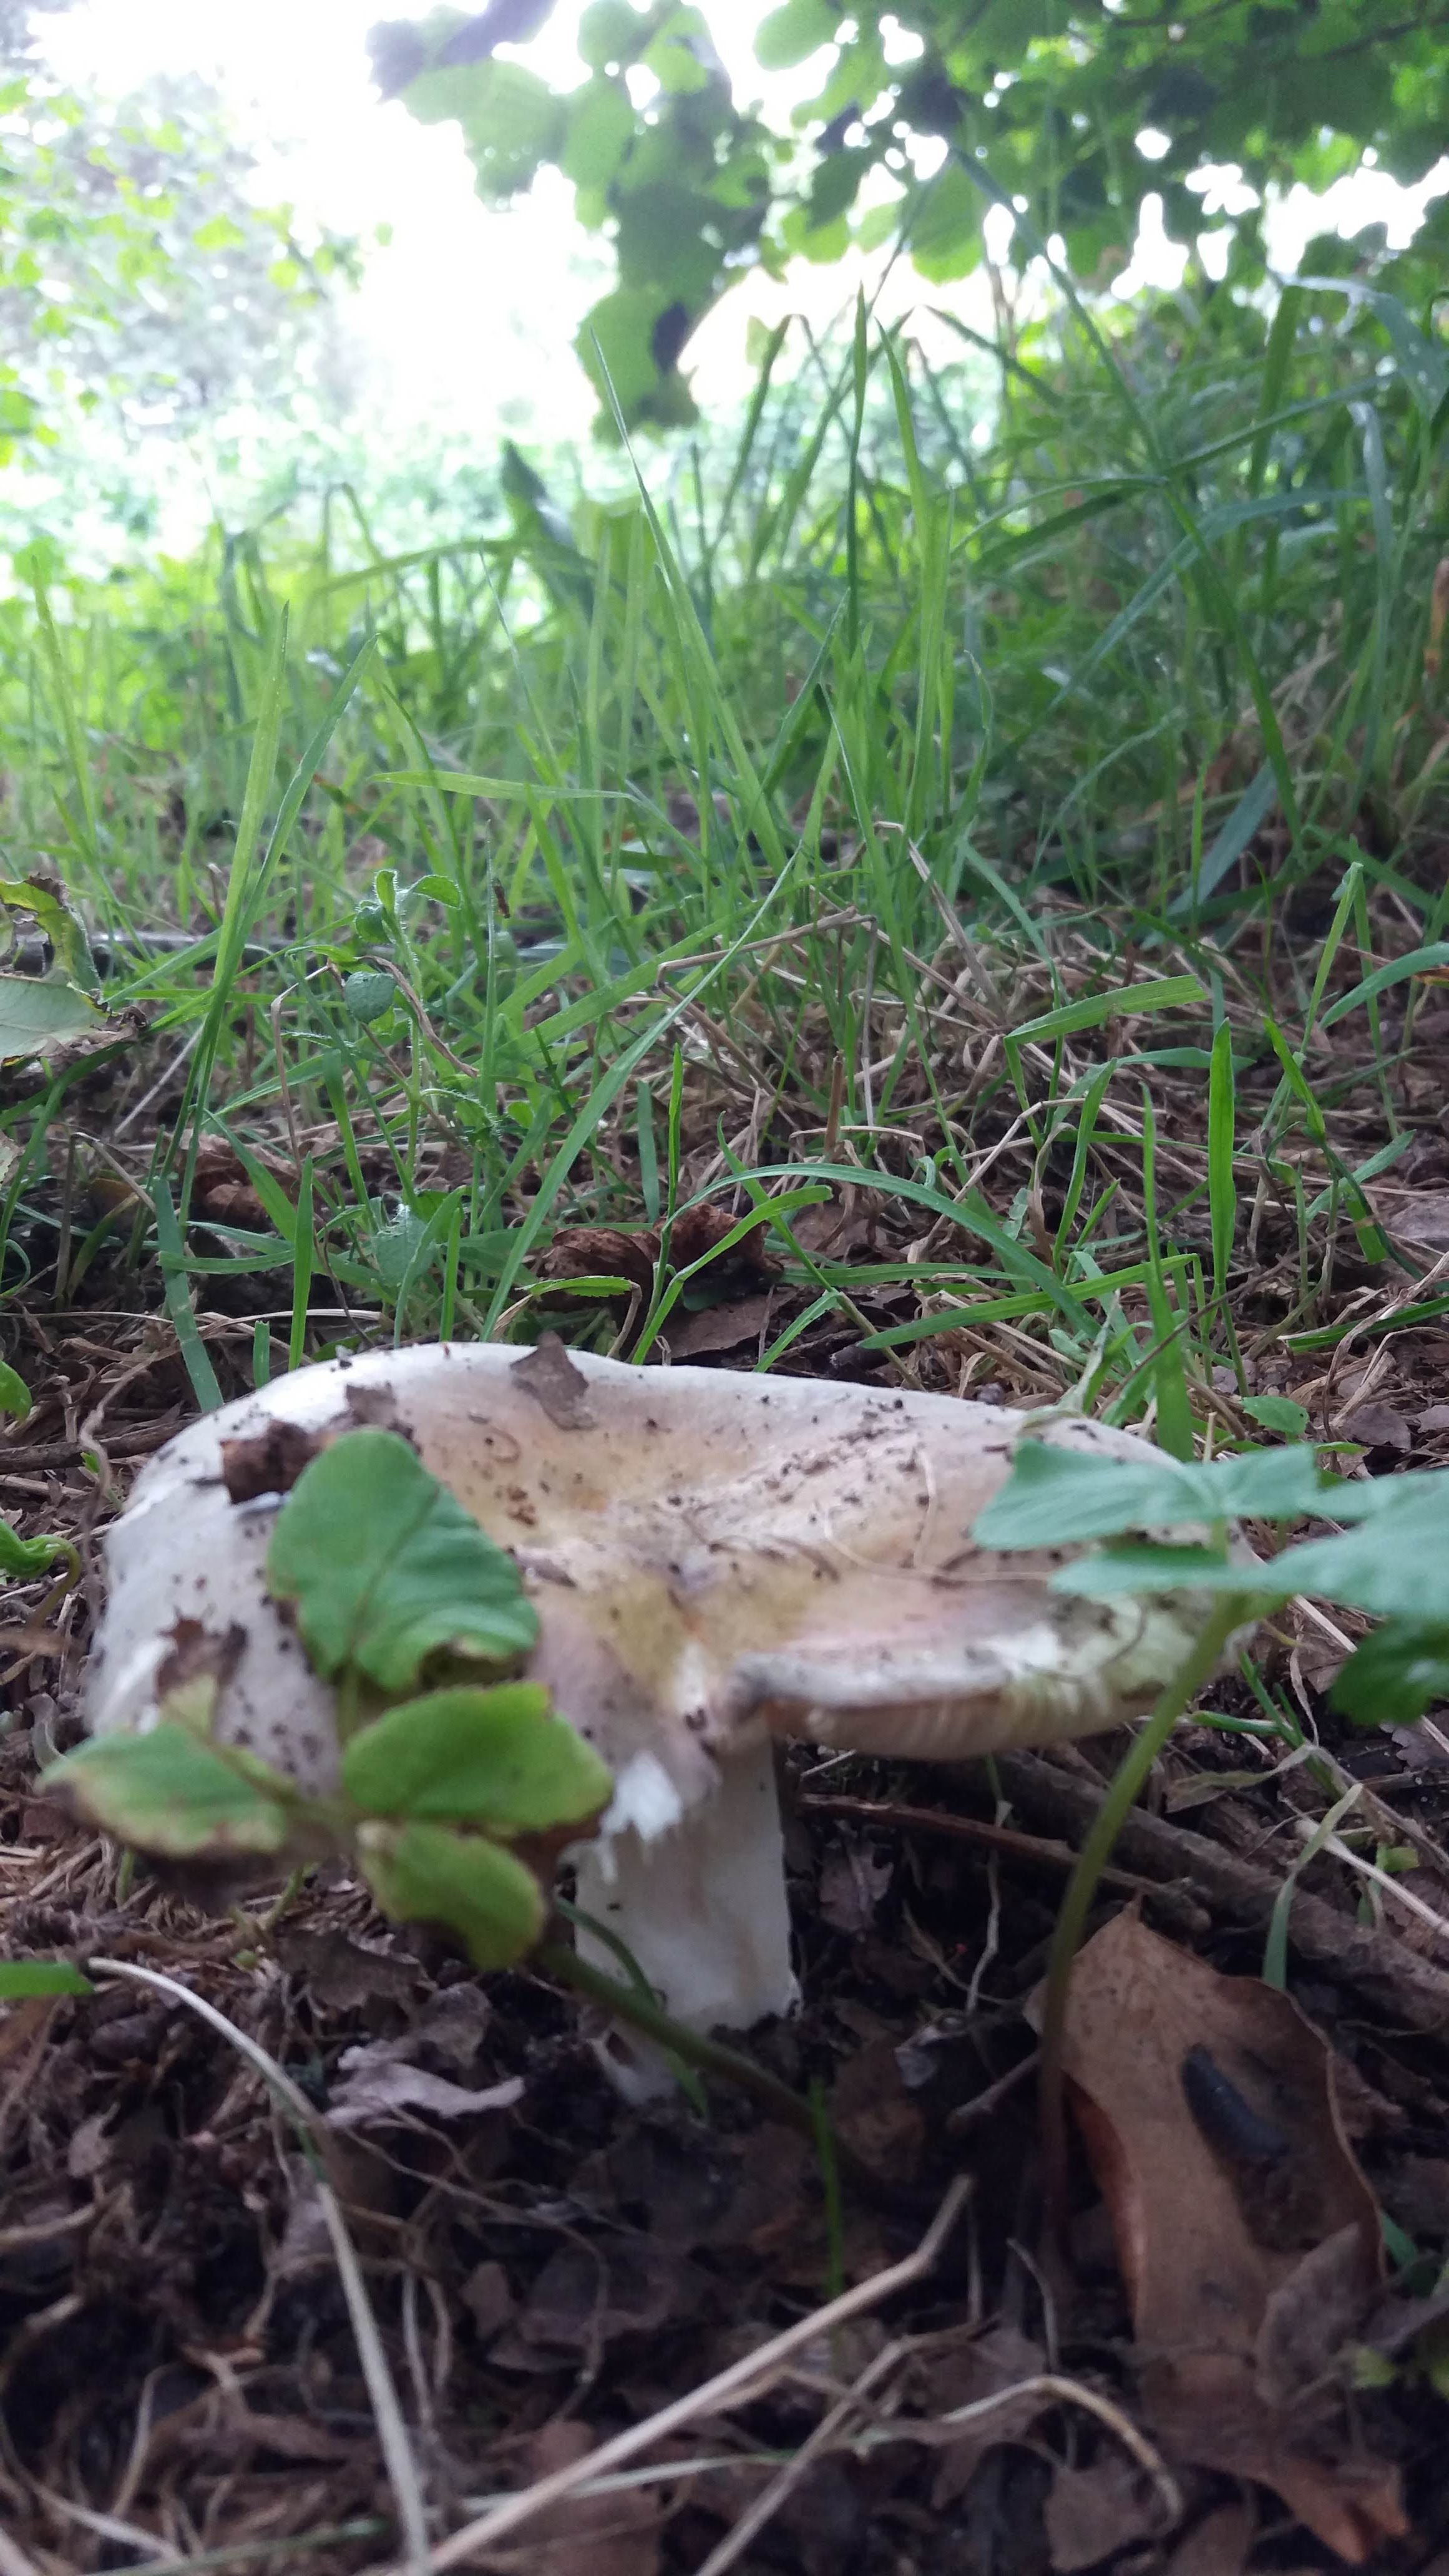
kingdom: Plantae
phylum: Tracheophyta
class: Magnoliopsida
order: Fagales
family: Fagaceae
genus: Quercus
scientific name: Quercus robur
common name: Stilk-eg/almindelig eg
